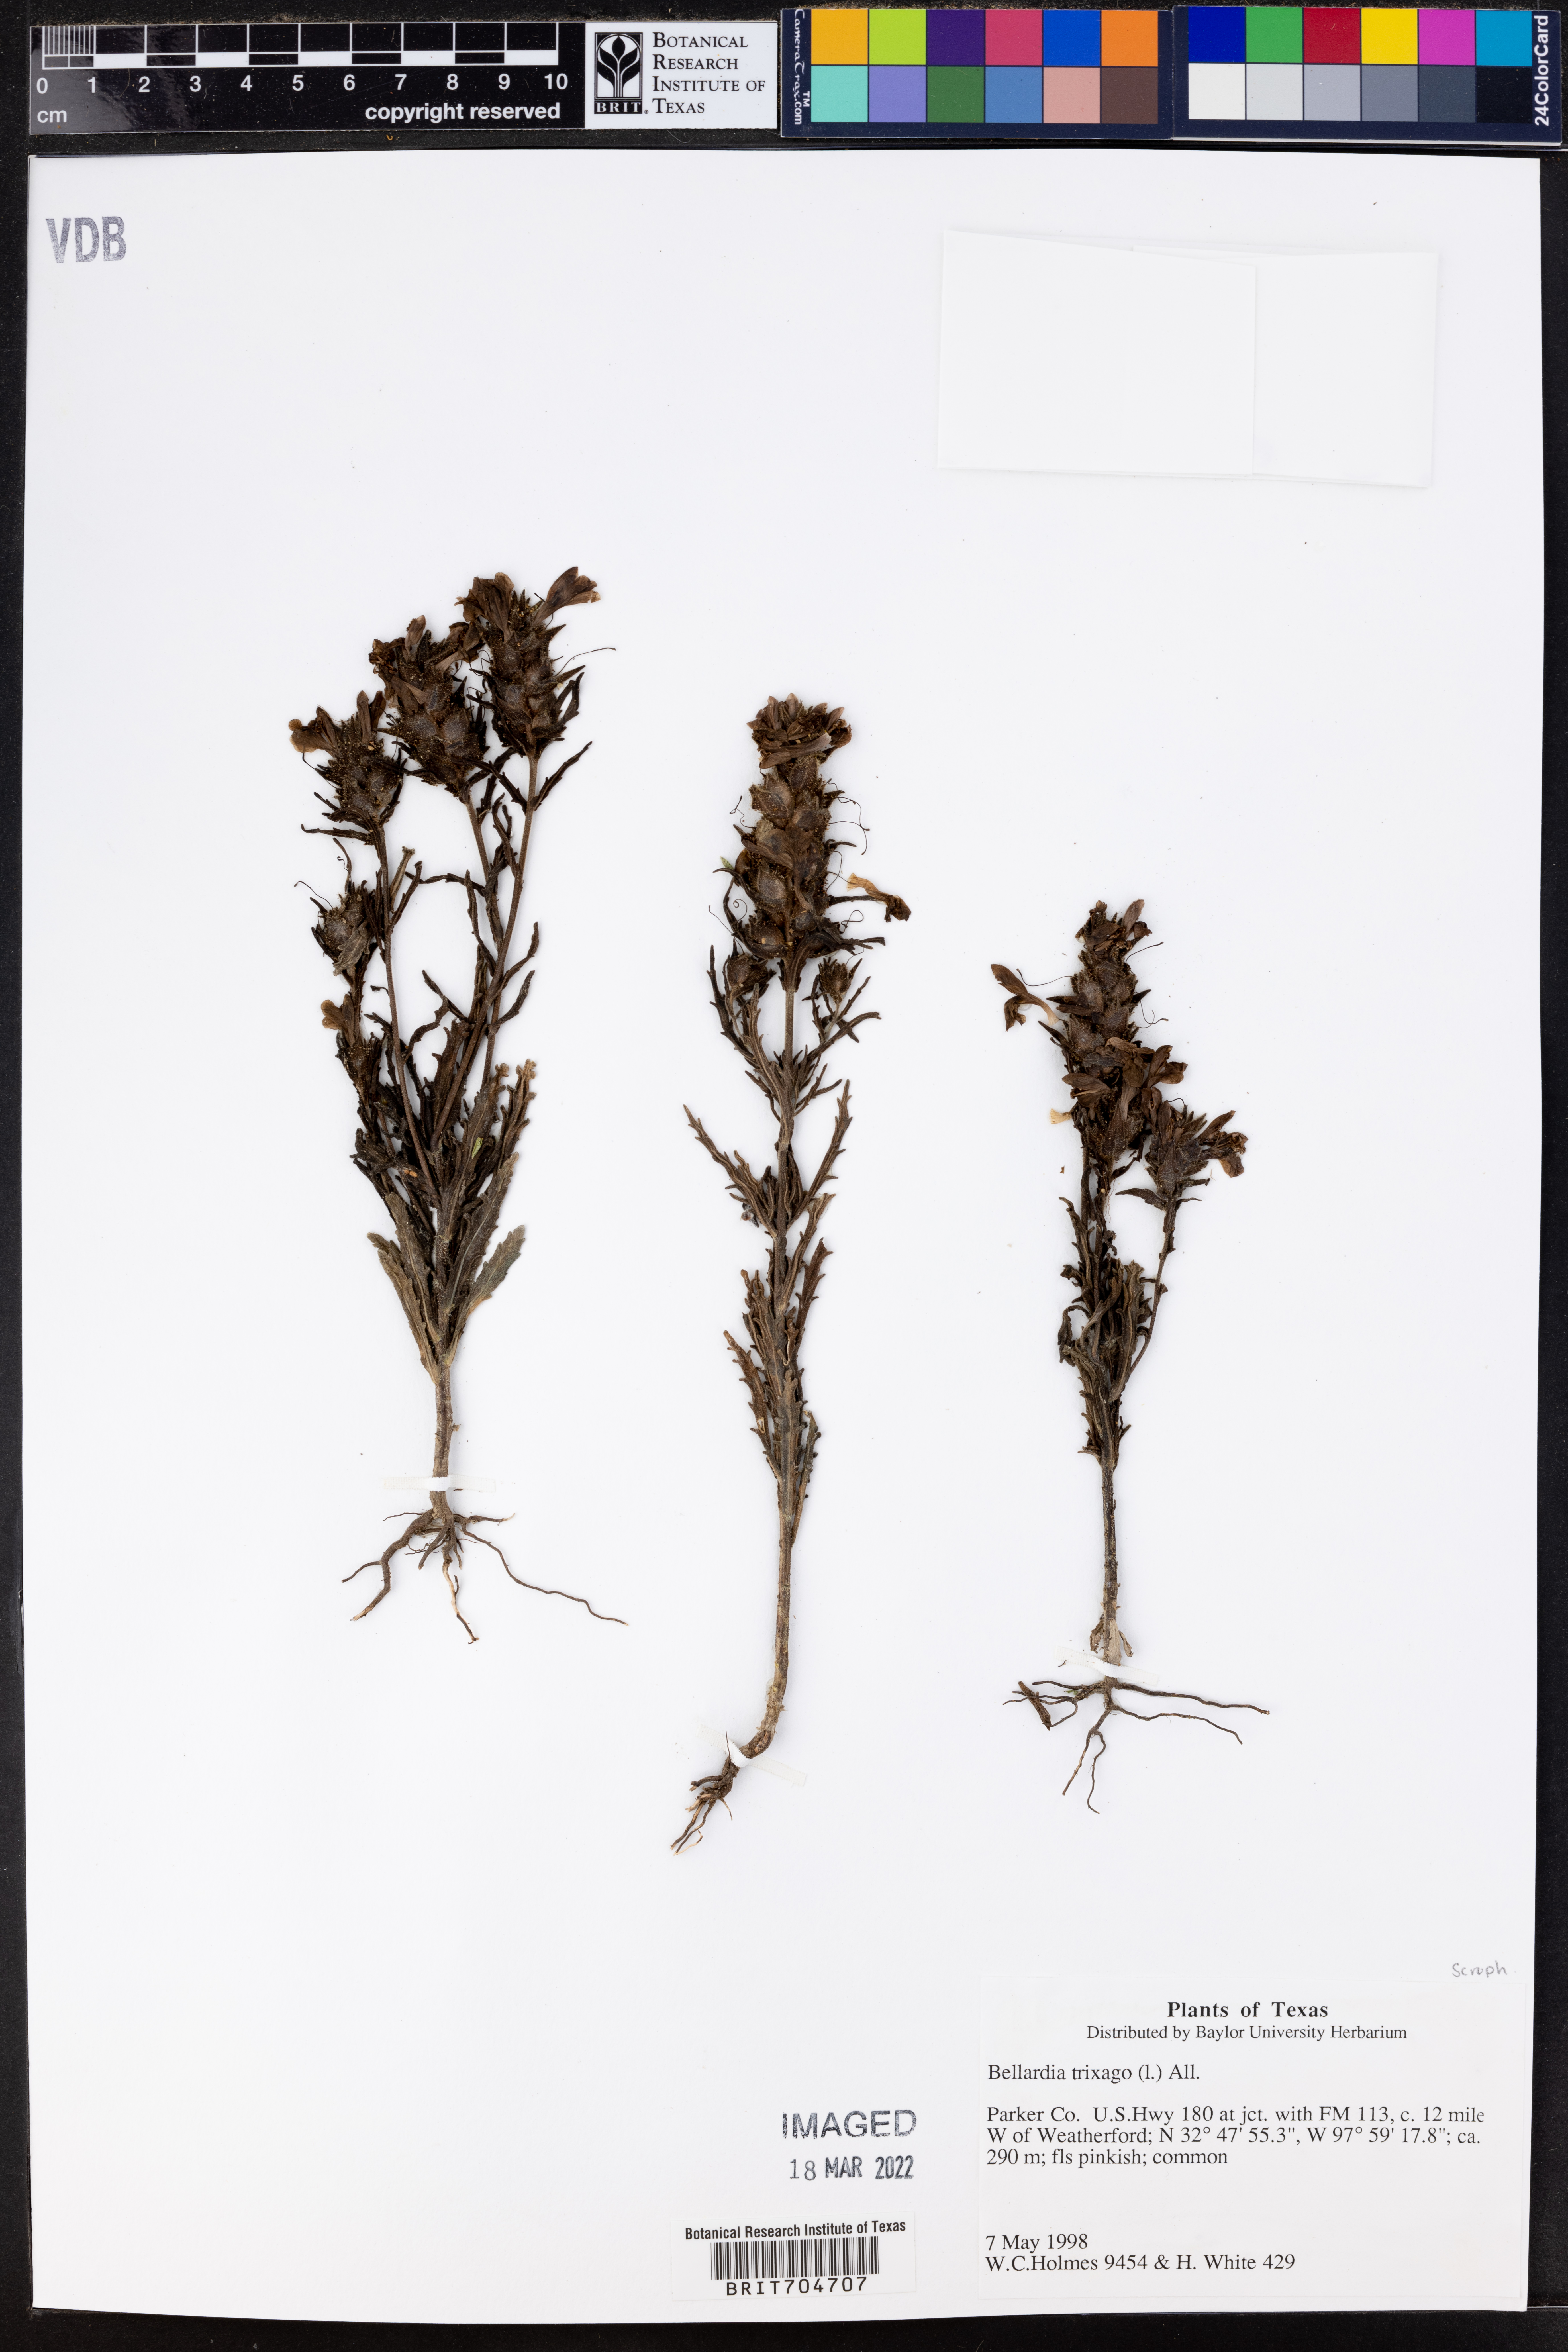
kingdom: Plantae
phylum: Tracheophyta
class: Magnoliopsida
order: Lamiales
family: Orobanchaceae
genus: Bellardia
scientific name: Bellardia trixago
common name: Mediterranean lineseed
